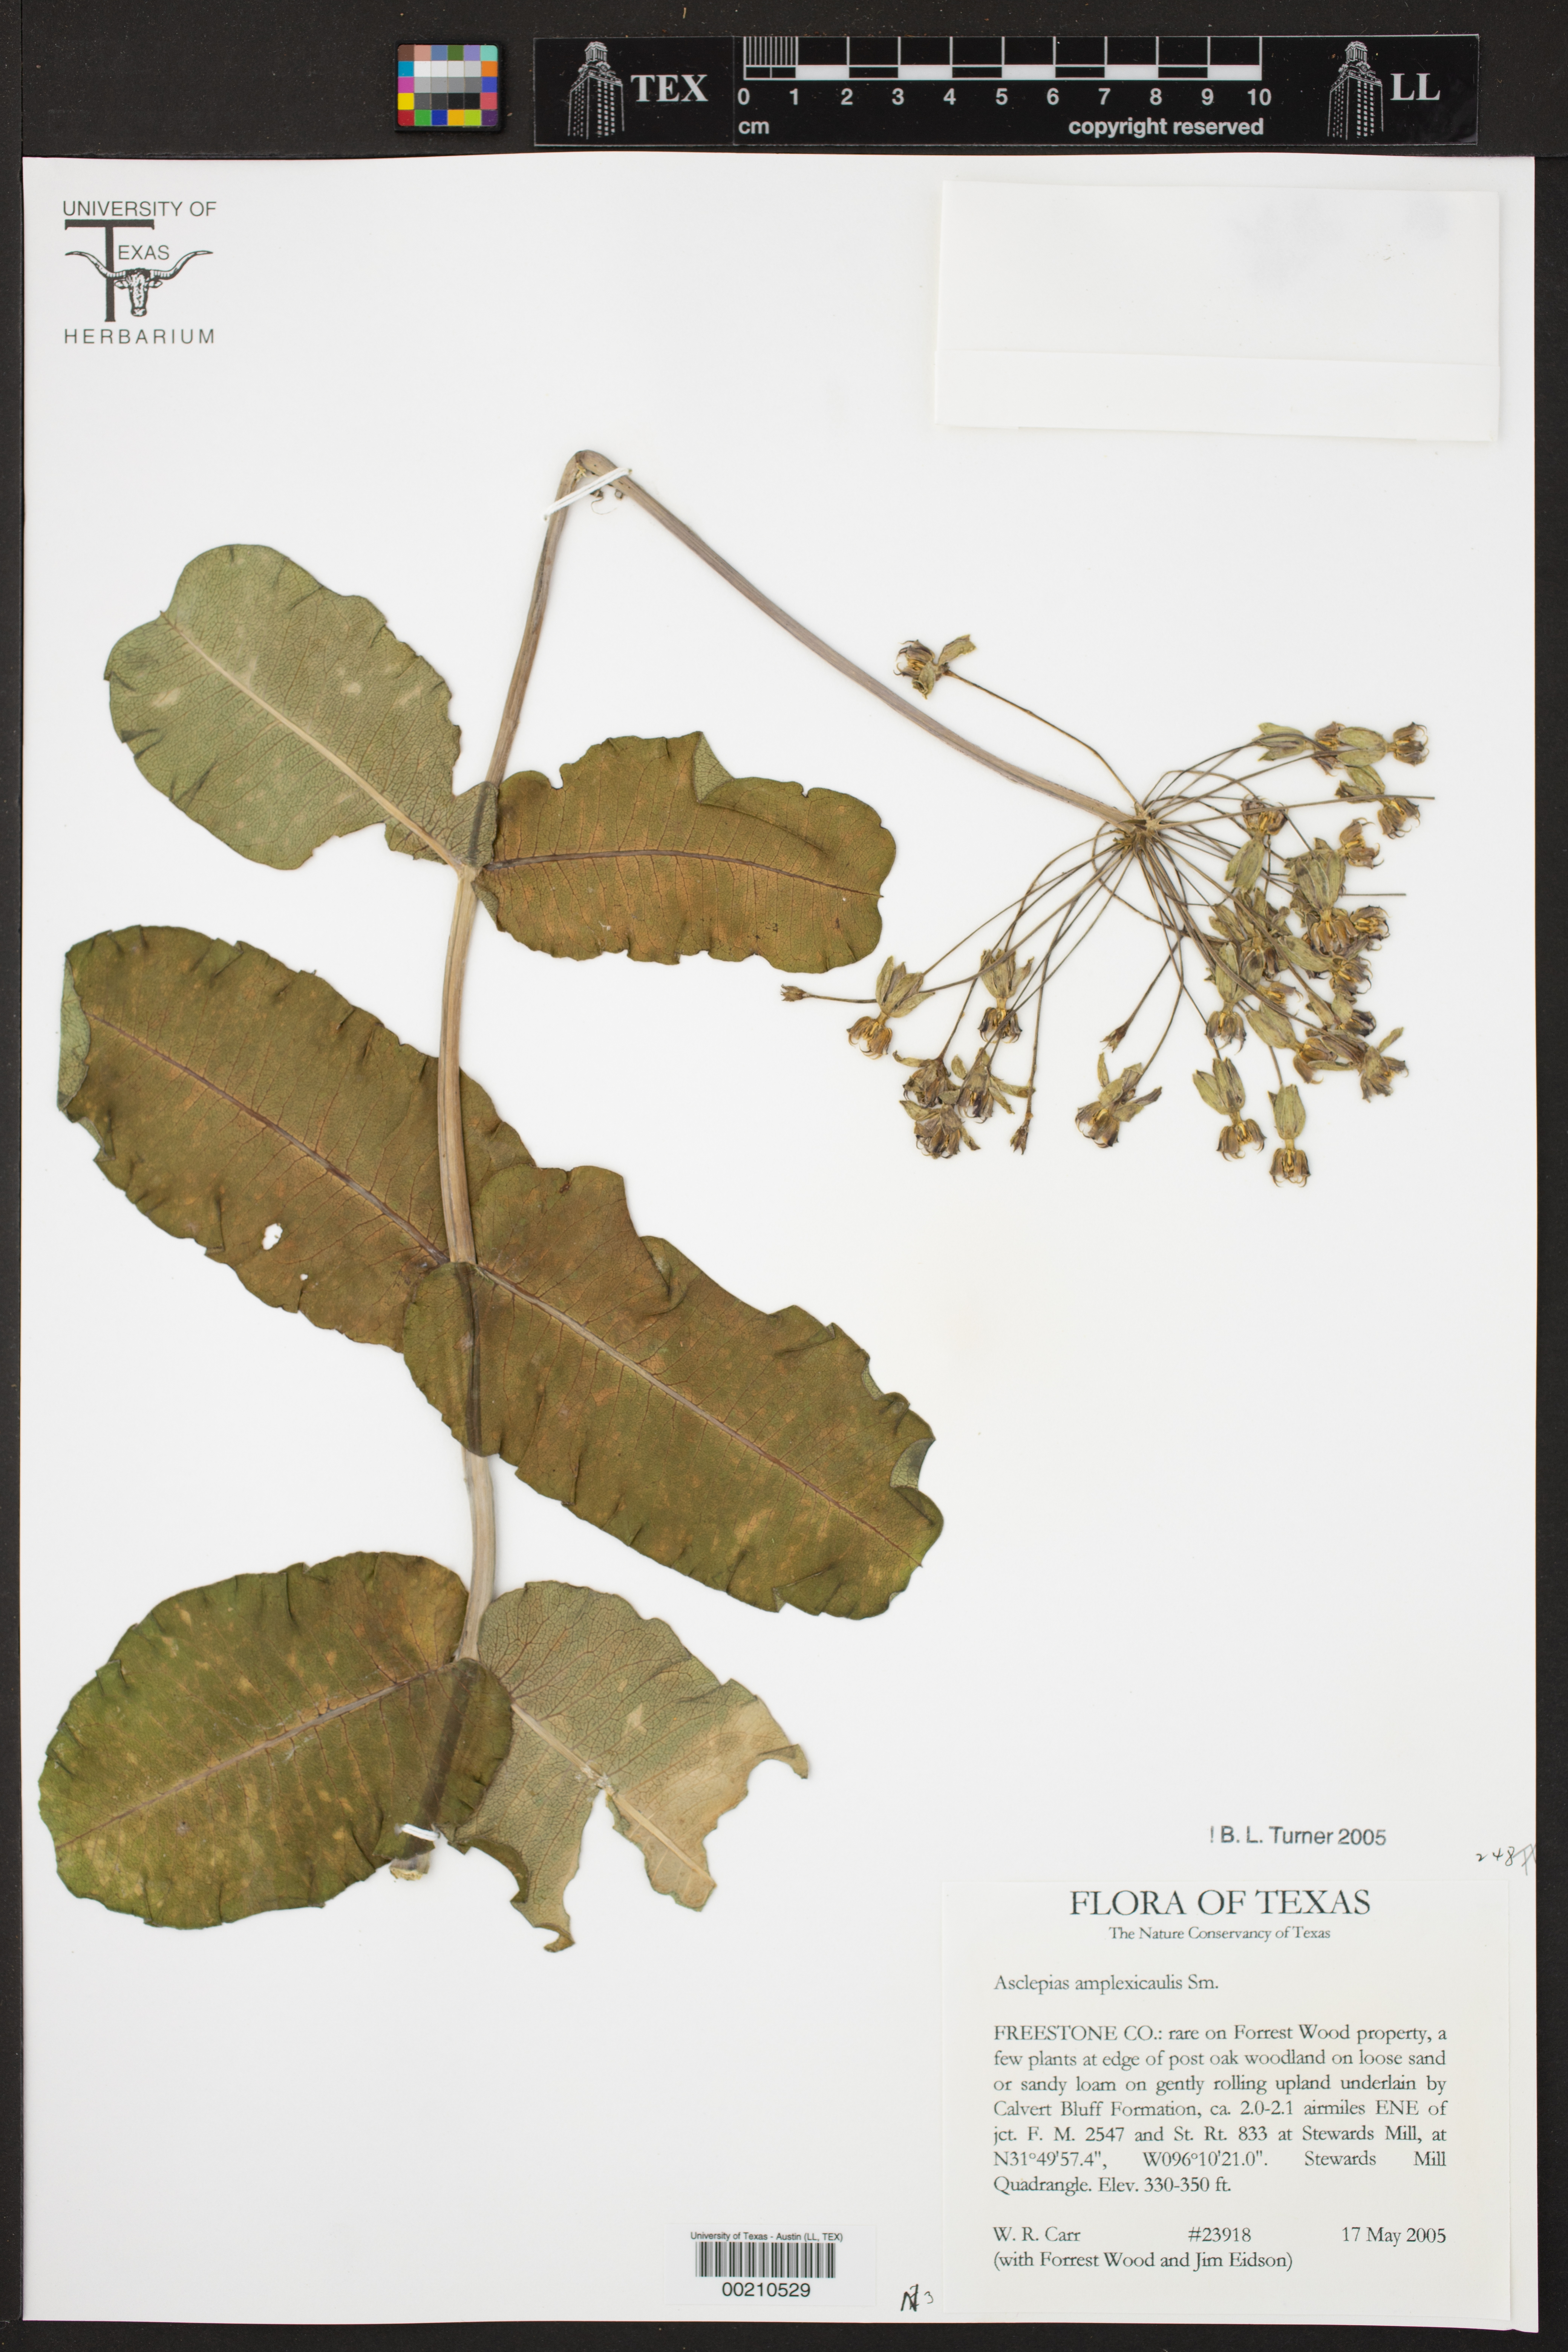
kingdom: Plantae
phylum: Tracheophyta
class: Magnoliopsida
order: Gentianales
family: Apocynaceae
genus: Asclepias
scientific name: Asclepias amplexicaulis
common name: Blunt-leaf milkweed
